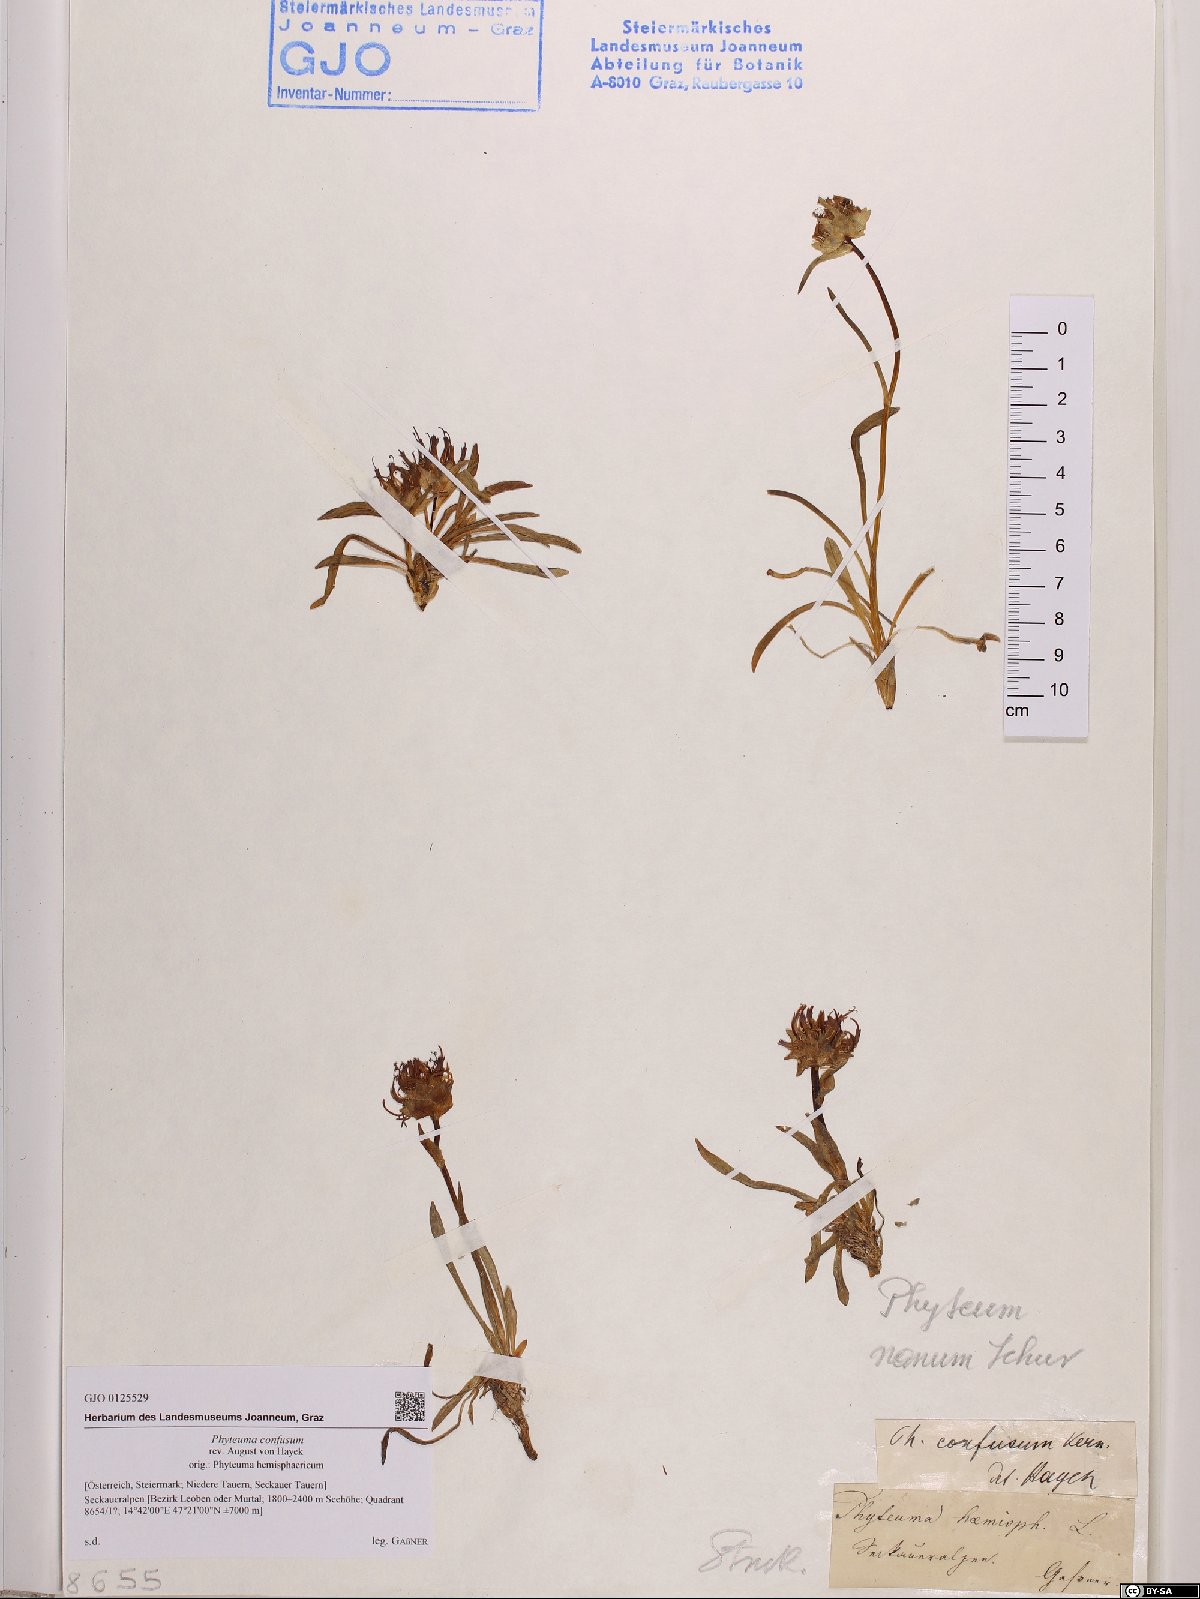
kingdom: Plantae
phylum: Tracheophyta
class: Magnoliopsida
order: Asterales
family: Campanulaceae
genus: Phyteuma
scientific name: Phyteuma confusum
